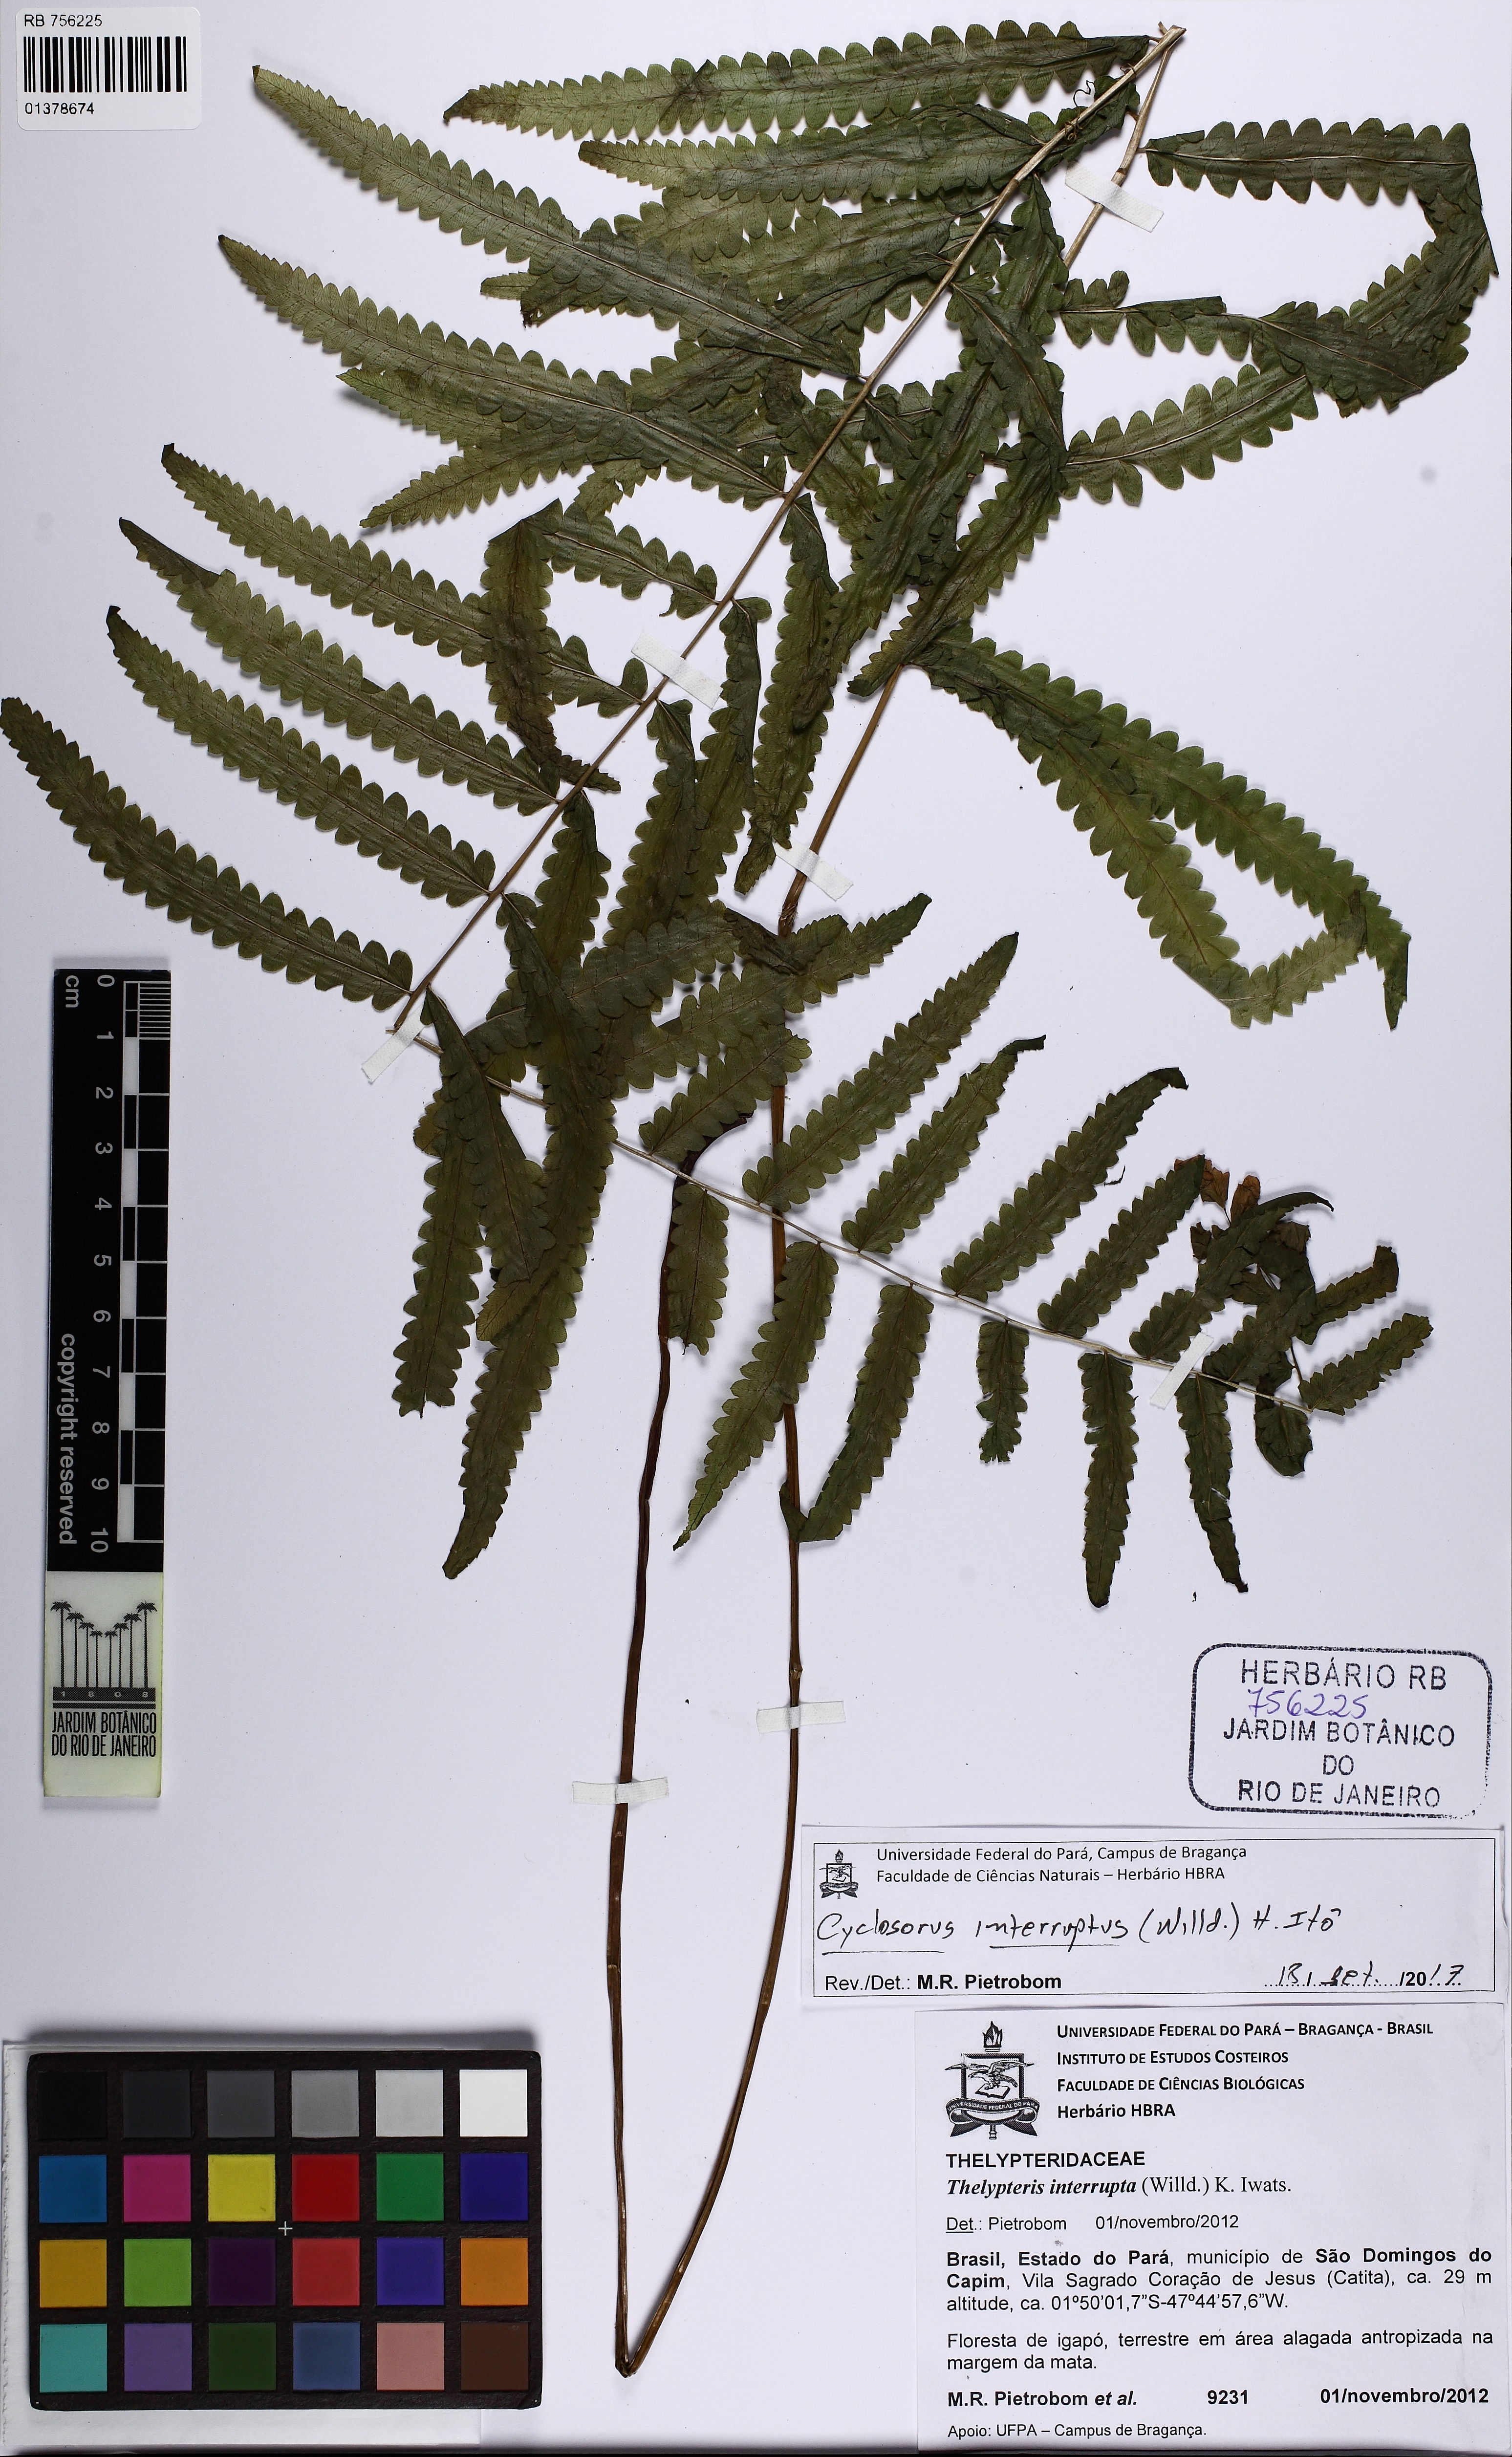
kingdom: Plantae
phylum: Tracheophyta
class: Polypodiopsida
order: Polypodiales
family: Thelypteridaceae
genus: Cyclosorus
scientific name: Cyclosorus interruptus
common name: Neke fern
